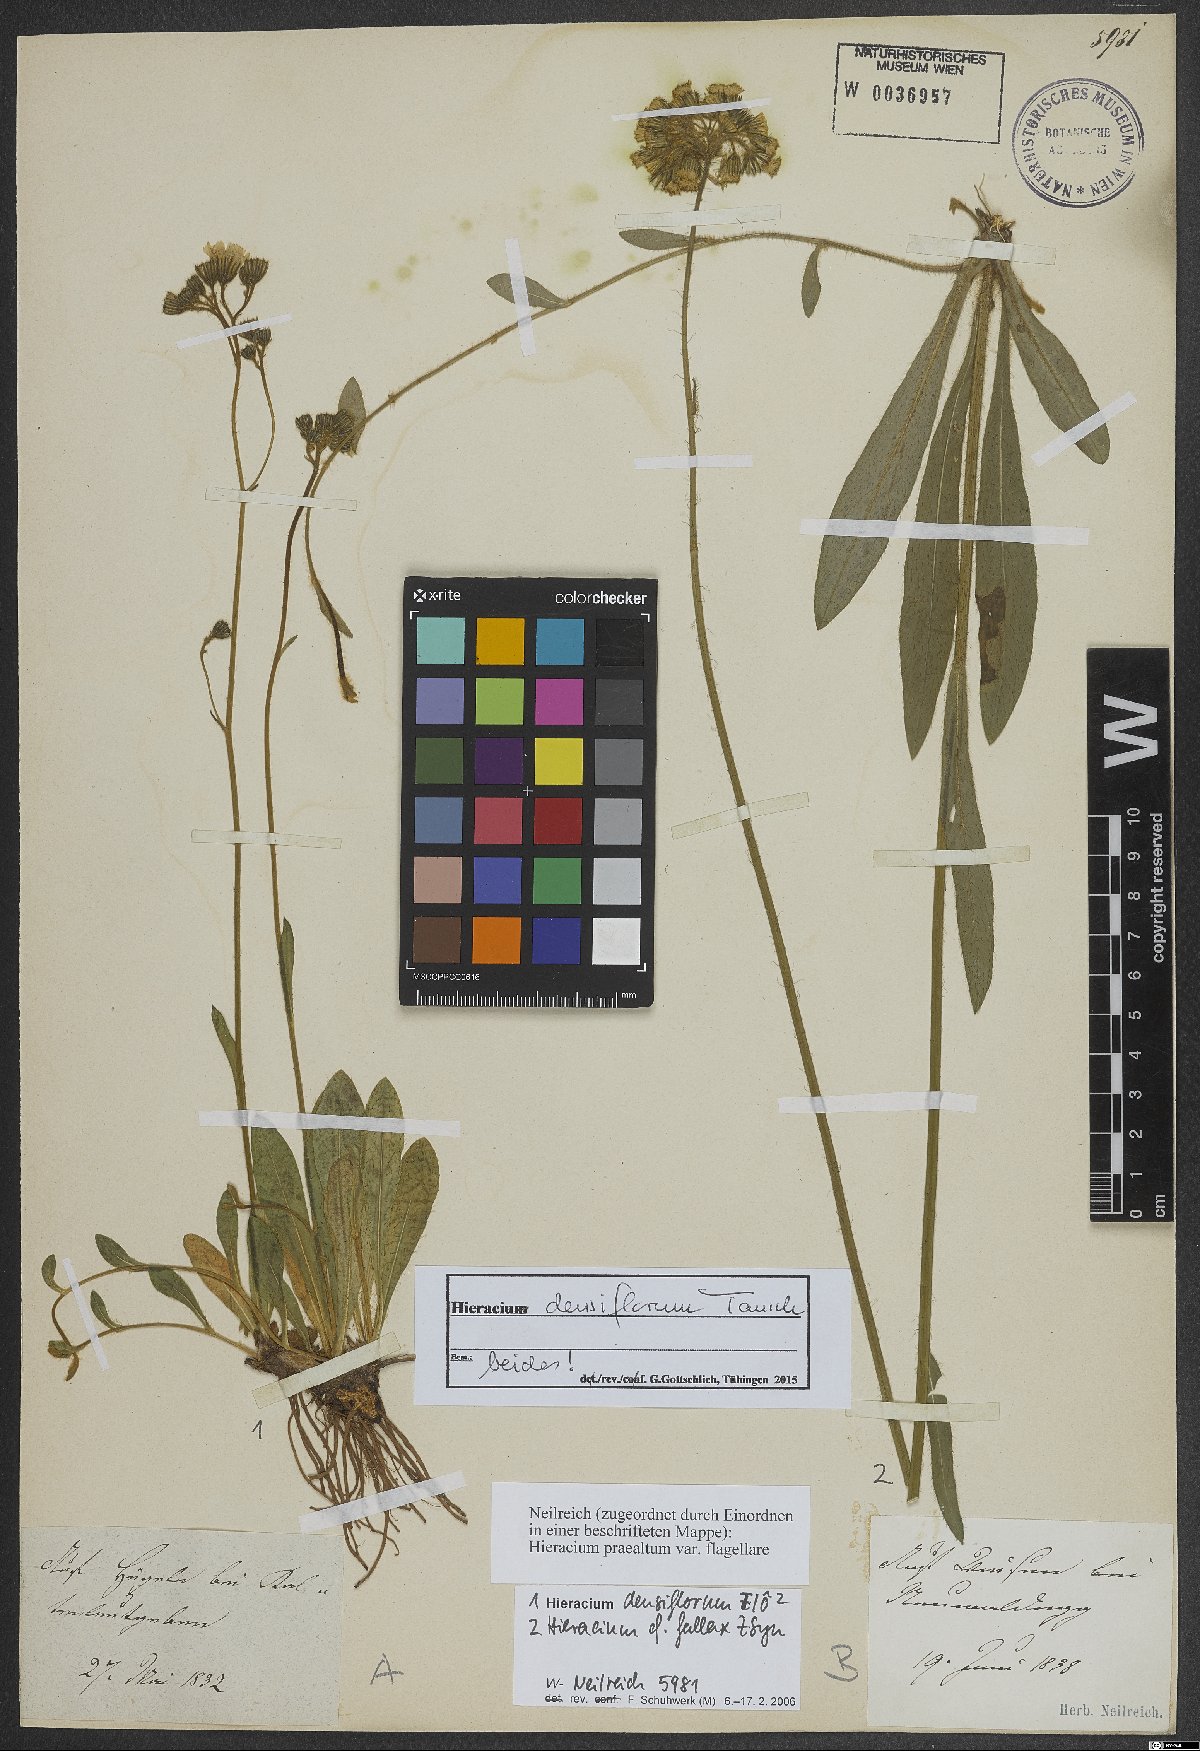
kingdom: Plantae
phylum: Tracheophyta
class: Magnoliopsida
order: Asterales
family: Asteraceae
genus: Pilosella
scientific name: Pilosella densiflora
